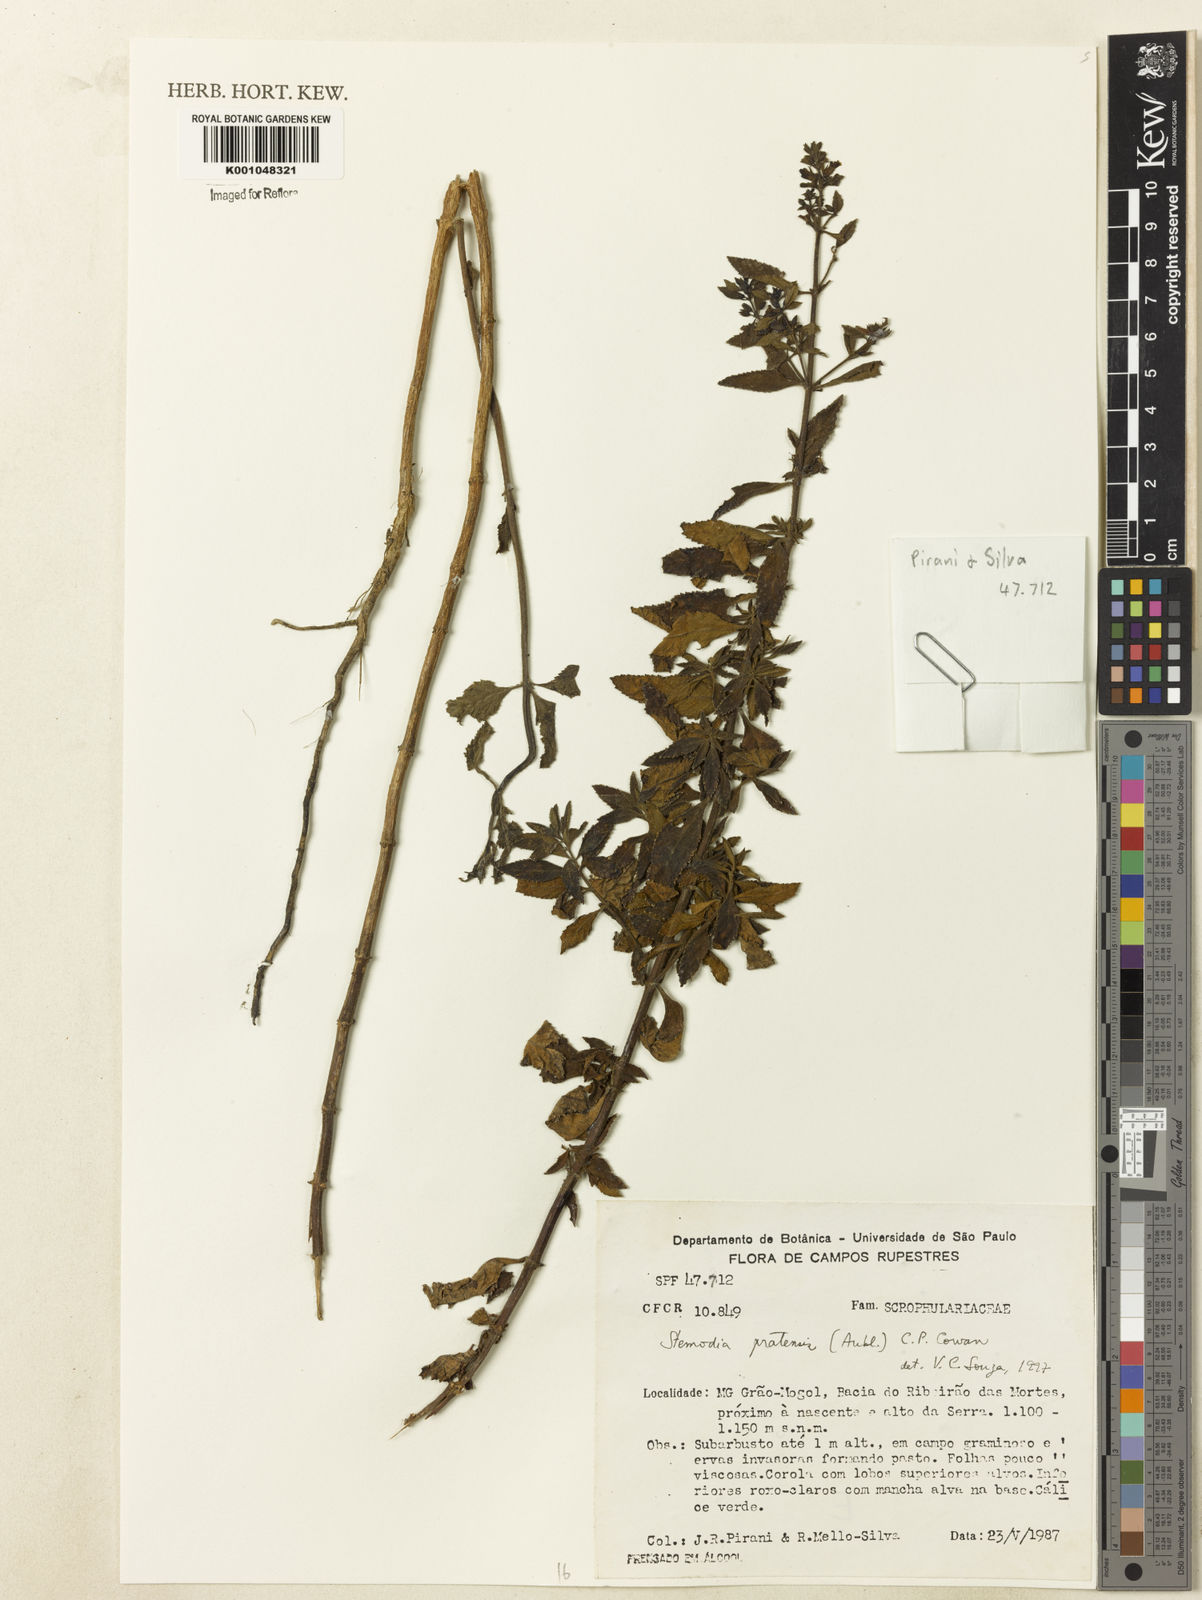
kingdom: Plantae
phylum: Tracheophyta
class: Magnoliopsida
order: Lamiales
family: Plantaginaceae
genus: Stemodia
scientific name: Stemodia foliosa
